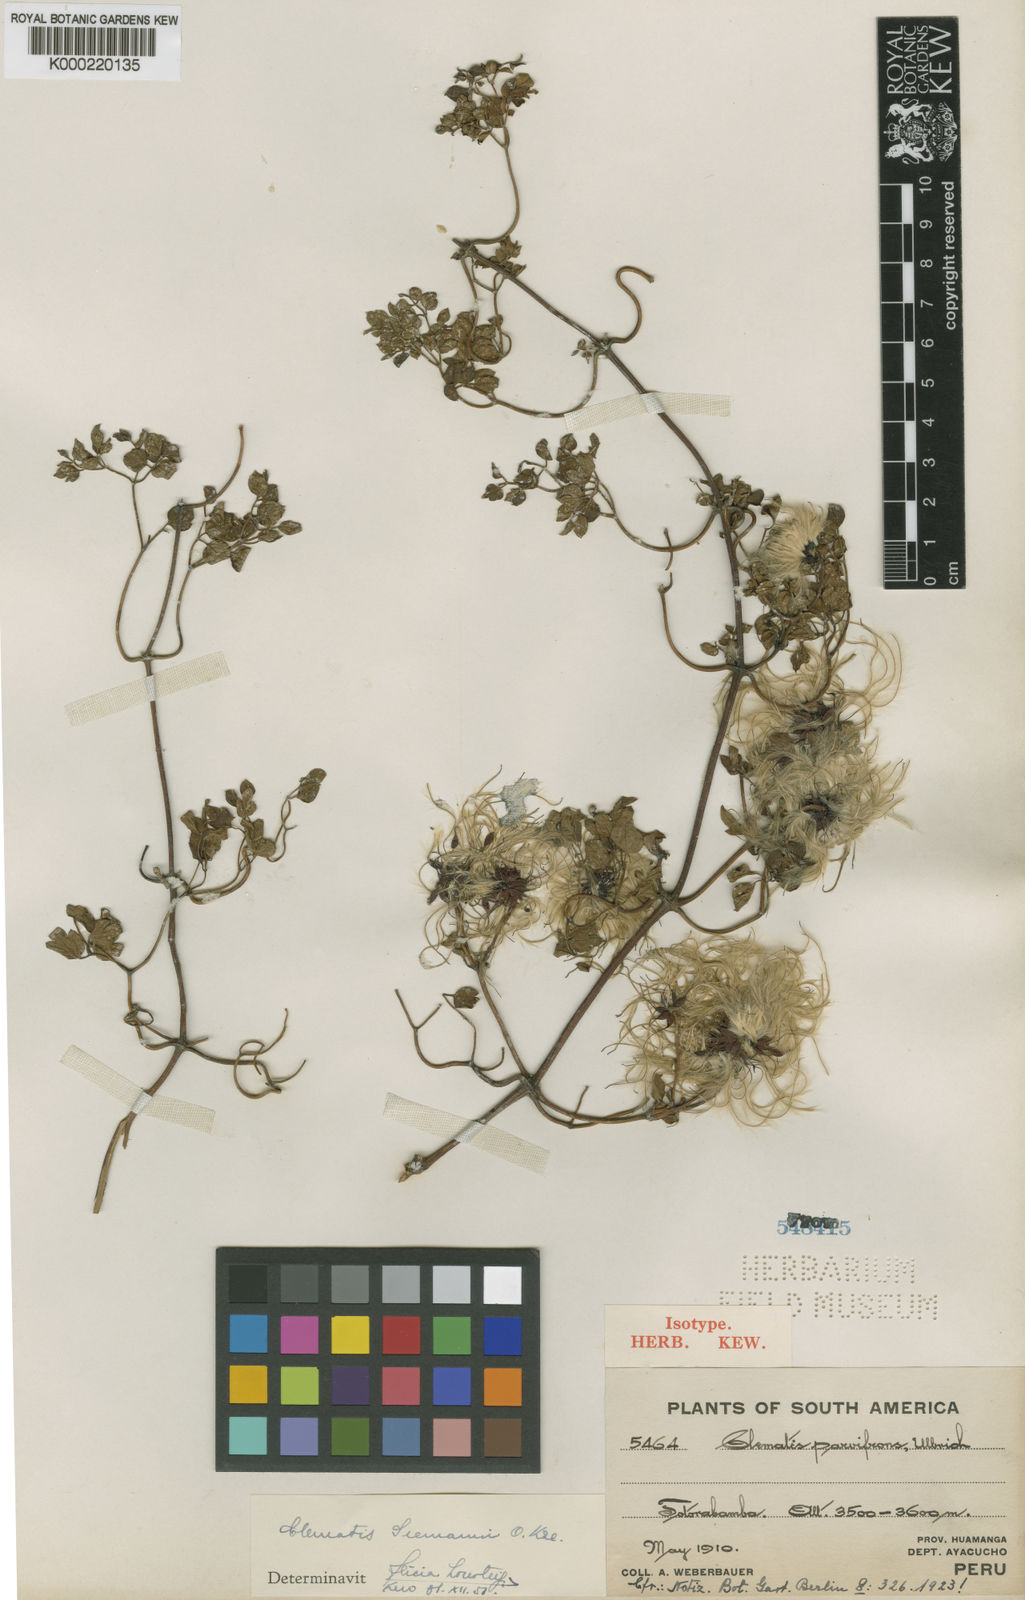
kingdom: Plantae
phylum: Tracheophyta
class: Magnoliopsida
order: Ranunculales
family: Ranunculaceae
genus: Clematis
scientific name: Clematis millefoliolata
